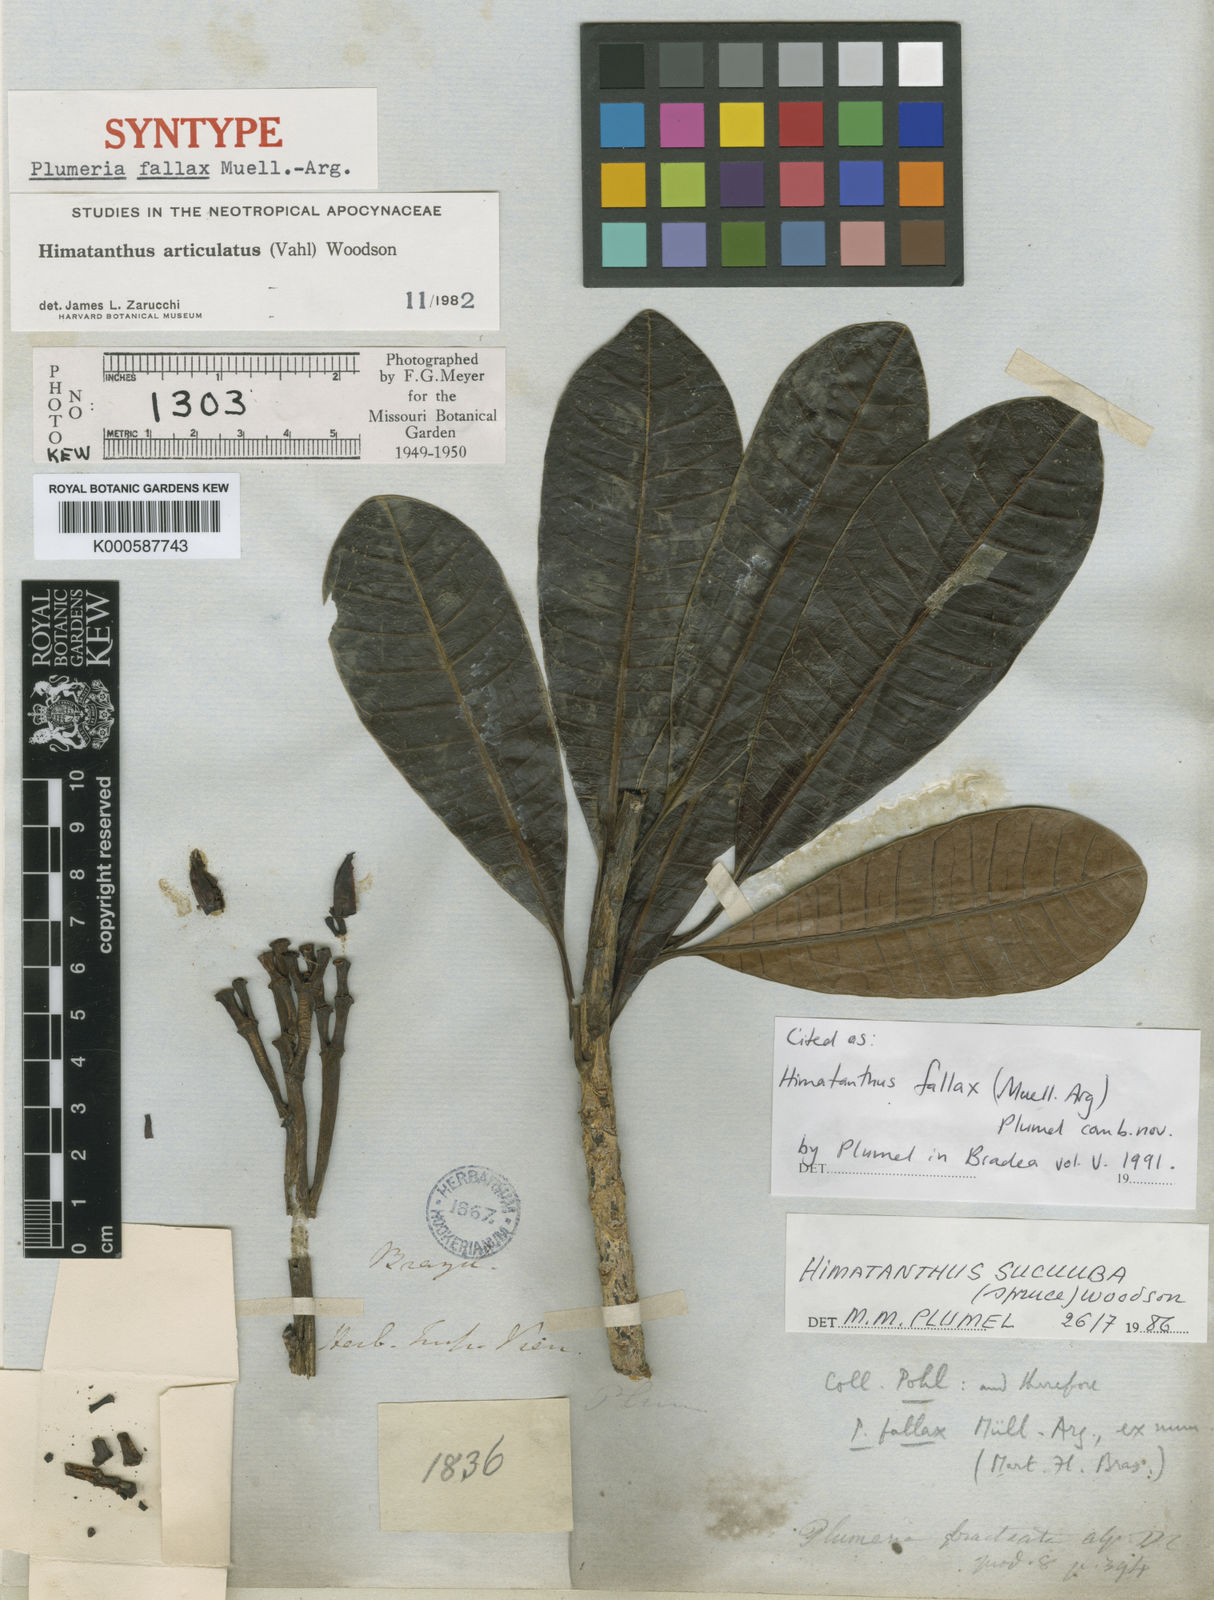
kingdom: Plantae
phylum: Tracheophyta
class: Magnoliopsida
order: Gentianales
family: Apocynaceae
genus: Himatanthus
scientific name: Himatanthus
